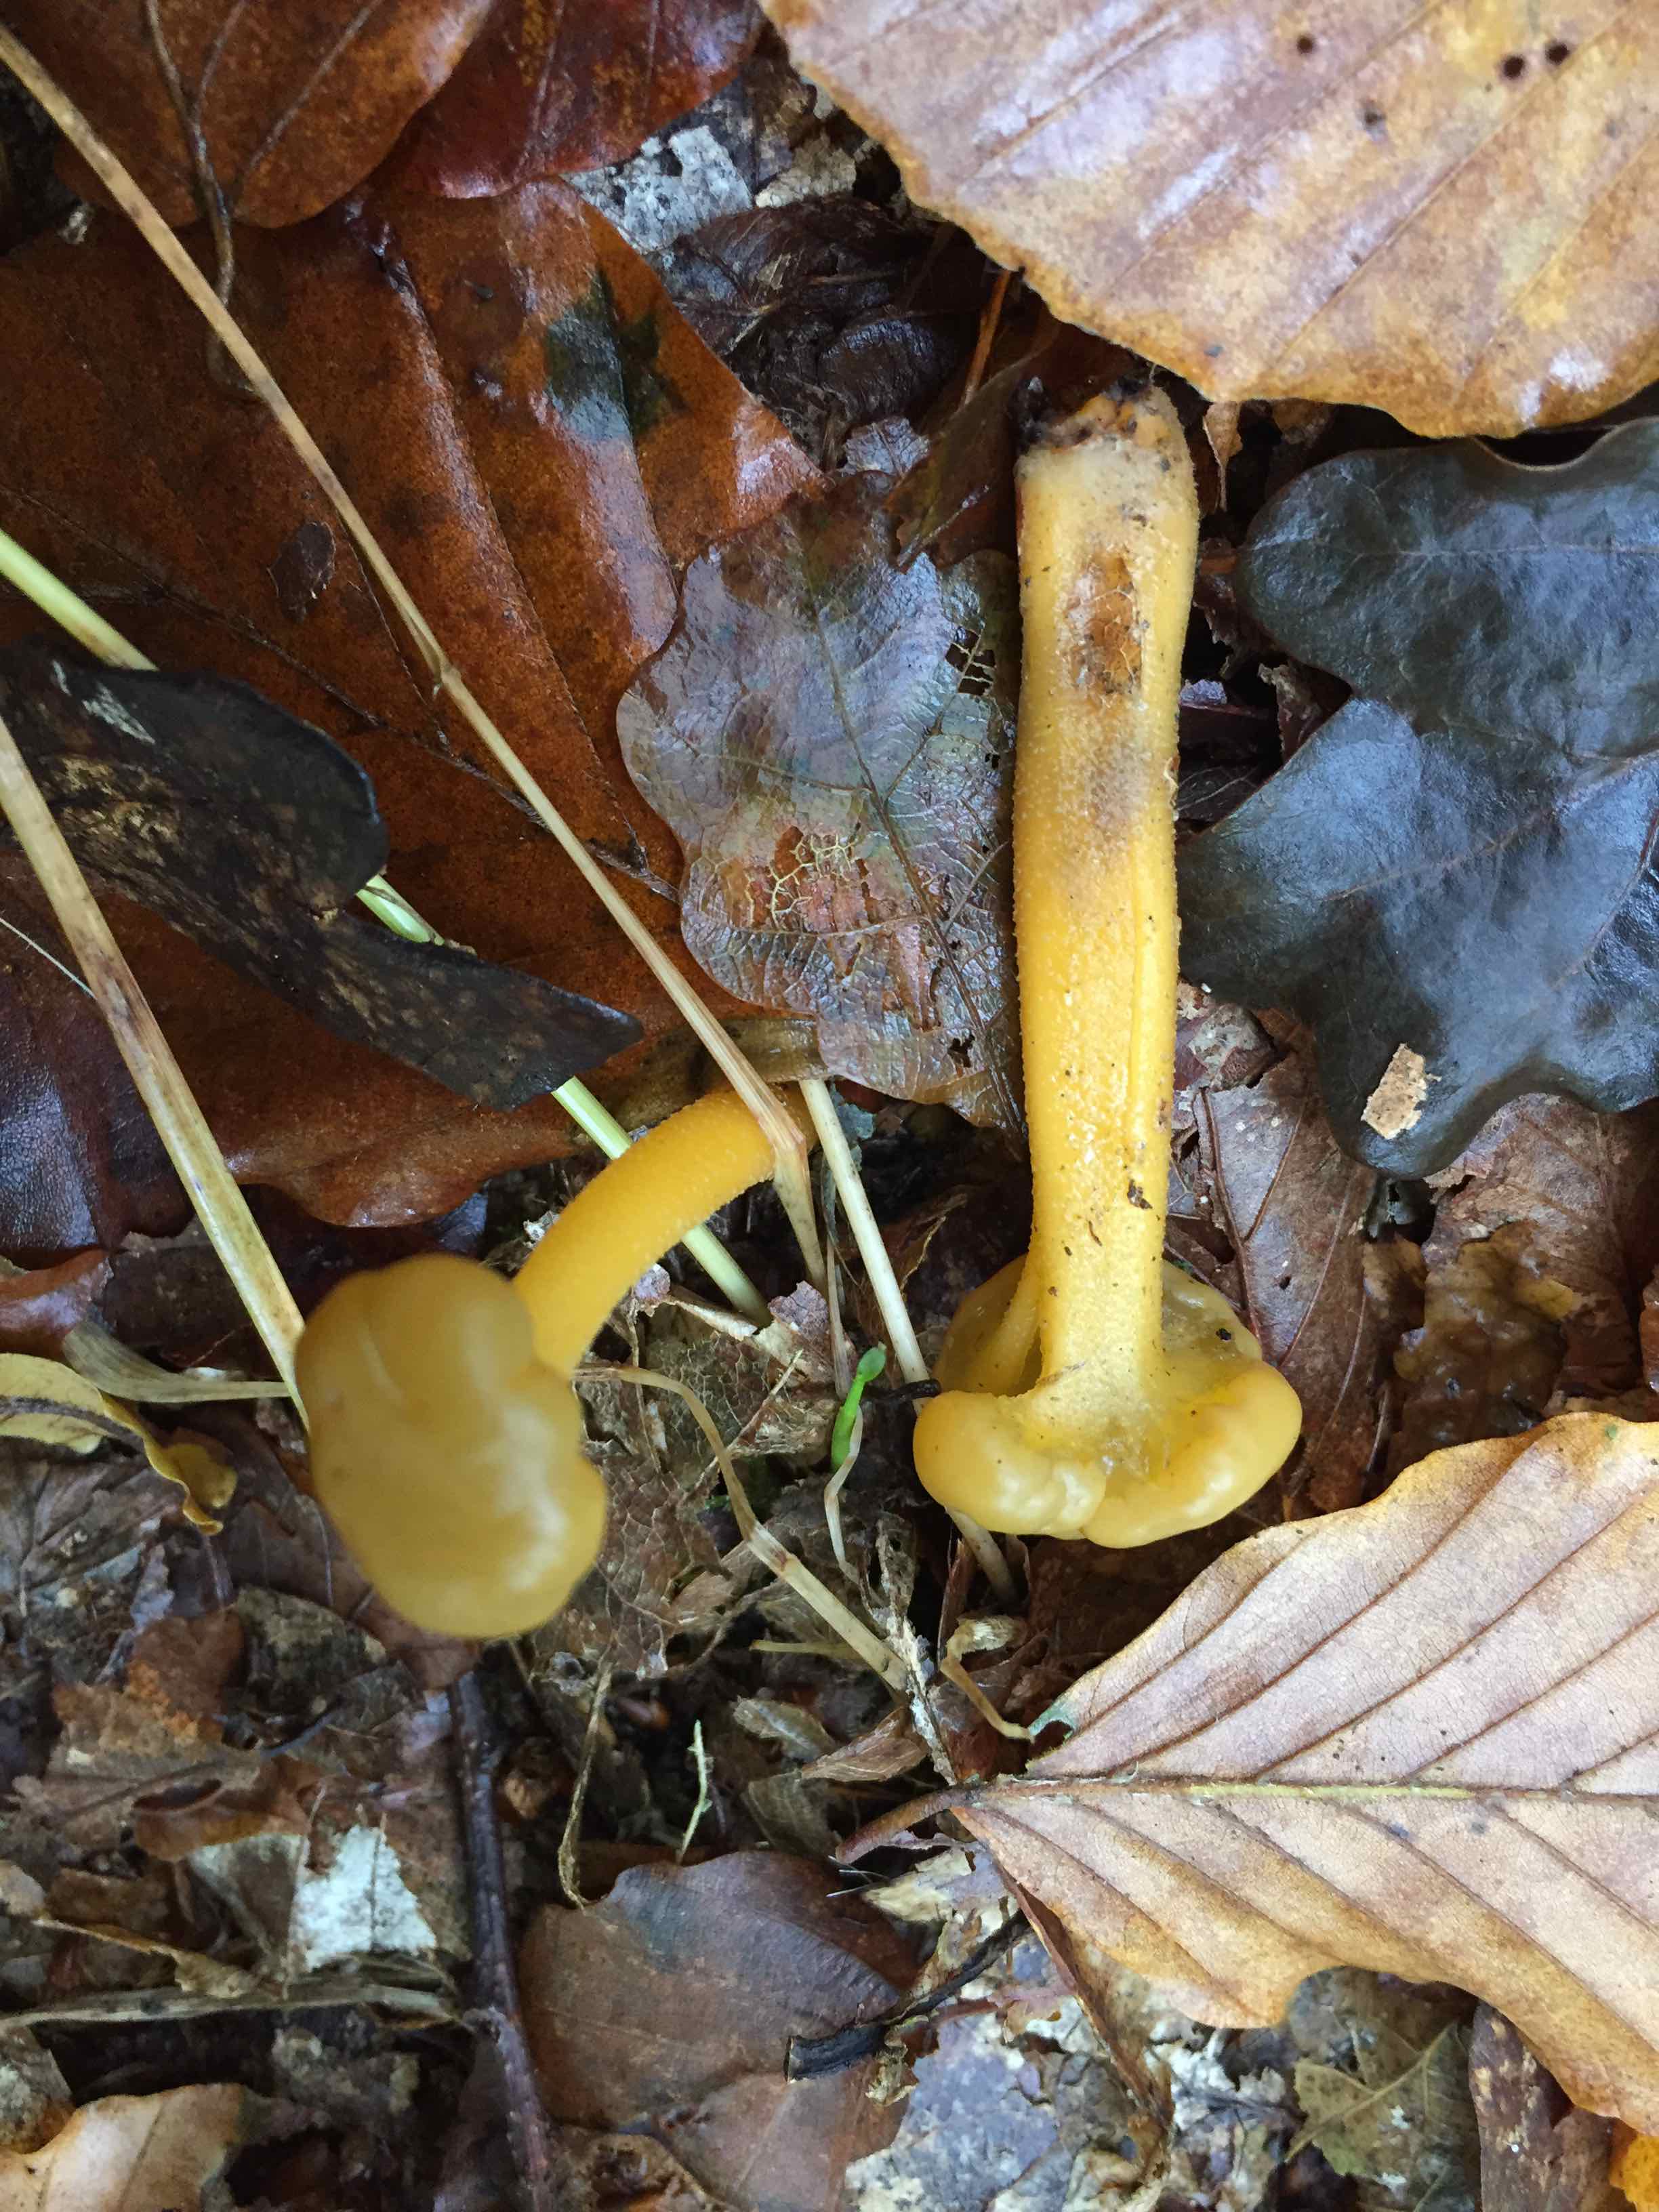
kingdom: Fungi
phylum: Ascomycota
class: Leotiomycetes
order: Leotiales
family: Leotiaceae
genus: Leotia
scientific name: Leotia lubrica
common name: ravsvamp
